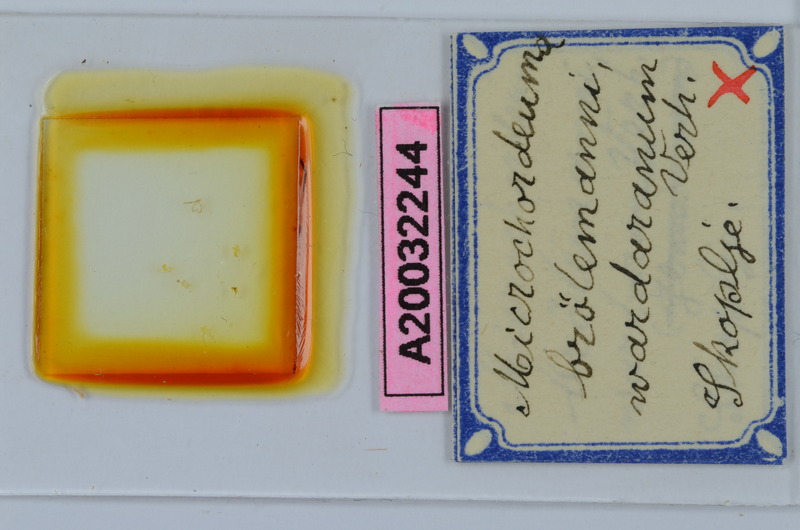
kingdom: Animalia
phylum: Arthropoda
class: Diplopoda
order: Chordeumatida
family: Chordeumatidae
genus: Melogona
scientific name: Melogona broelemanni
